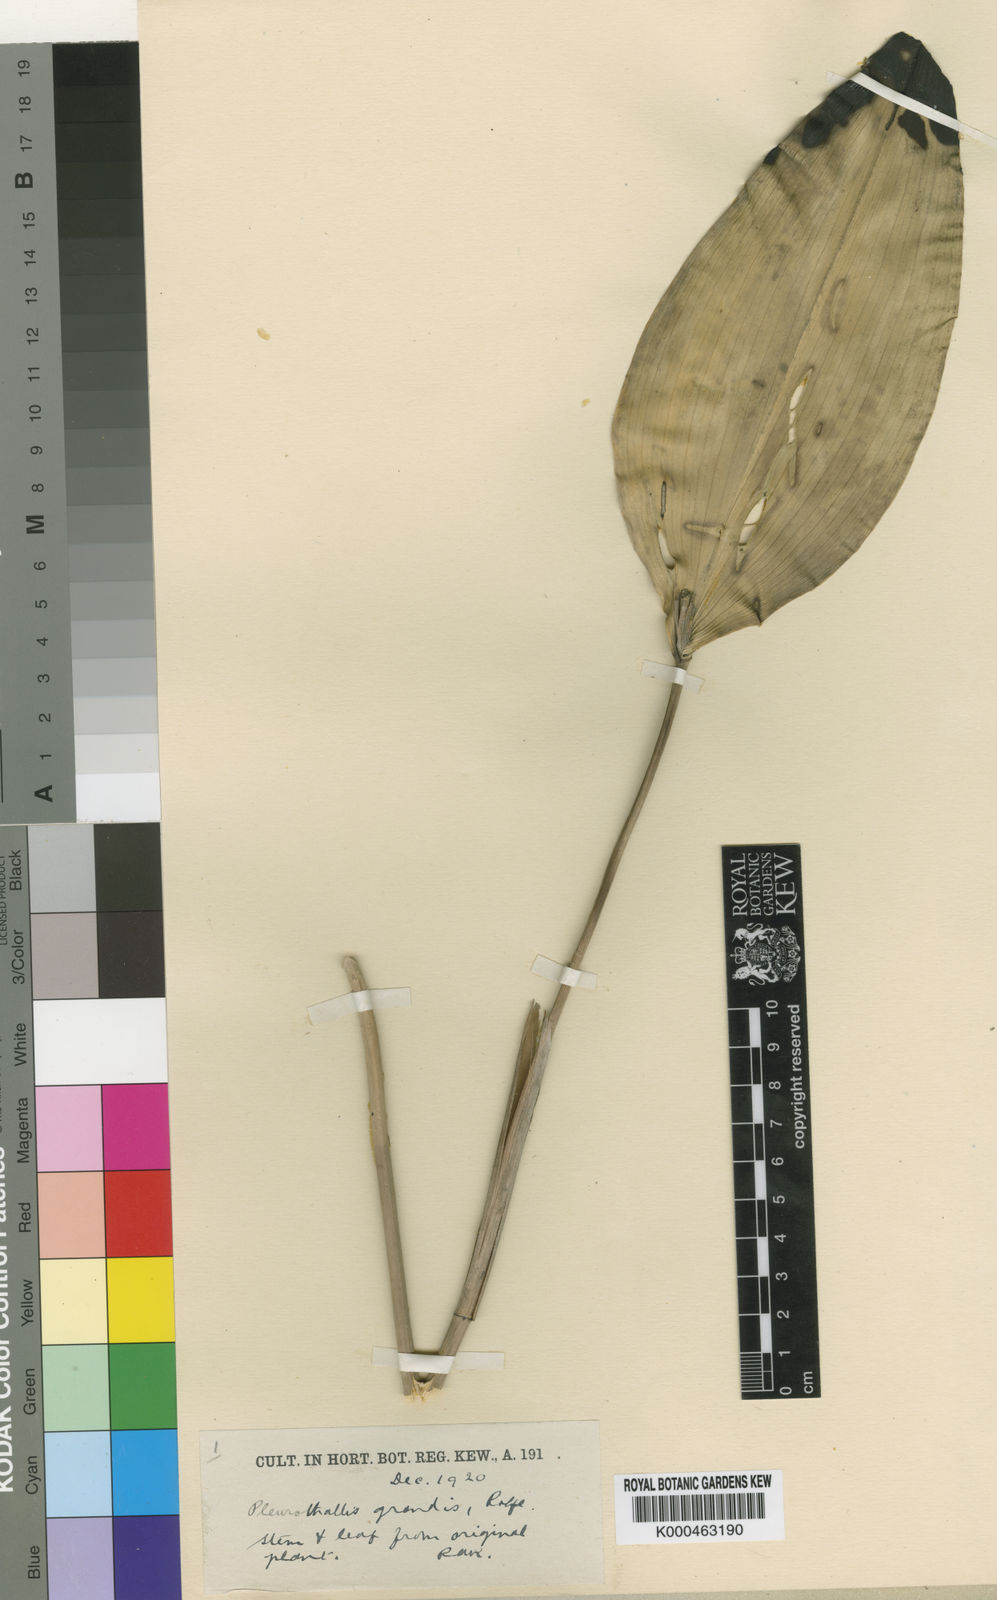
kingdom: Plantae
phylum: Tracheophyta
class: Liliopsida
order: Asparagales
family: Orchidaceae
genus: Stelis
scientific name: Stelis alta
